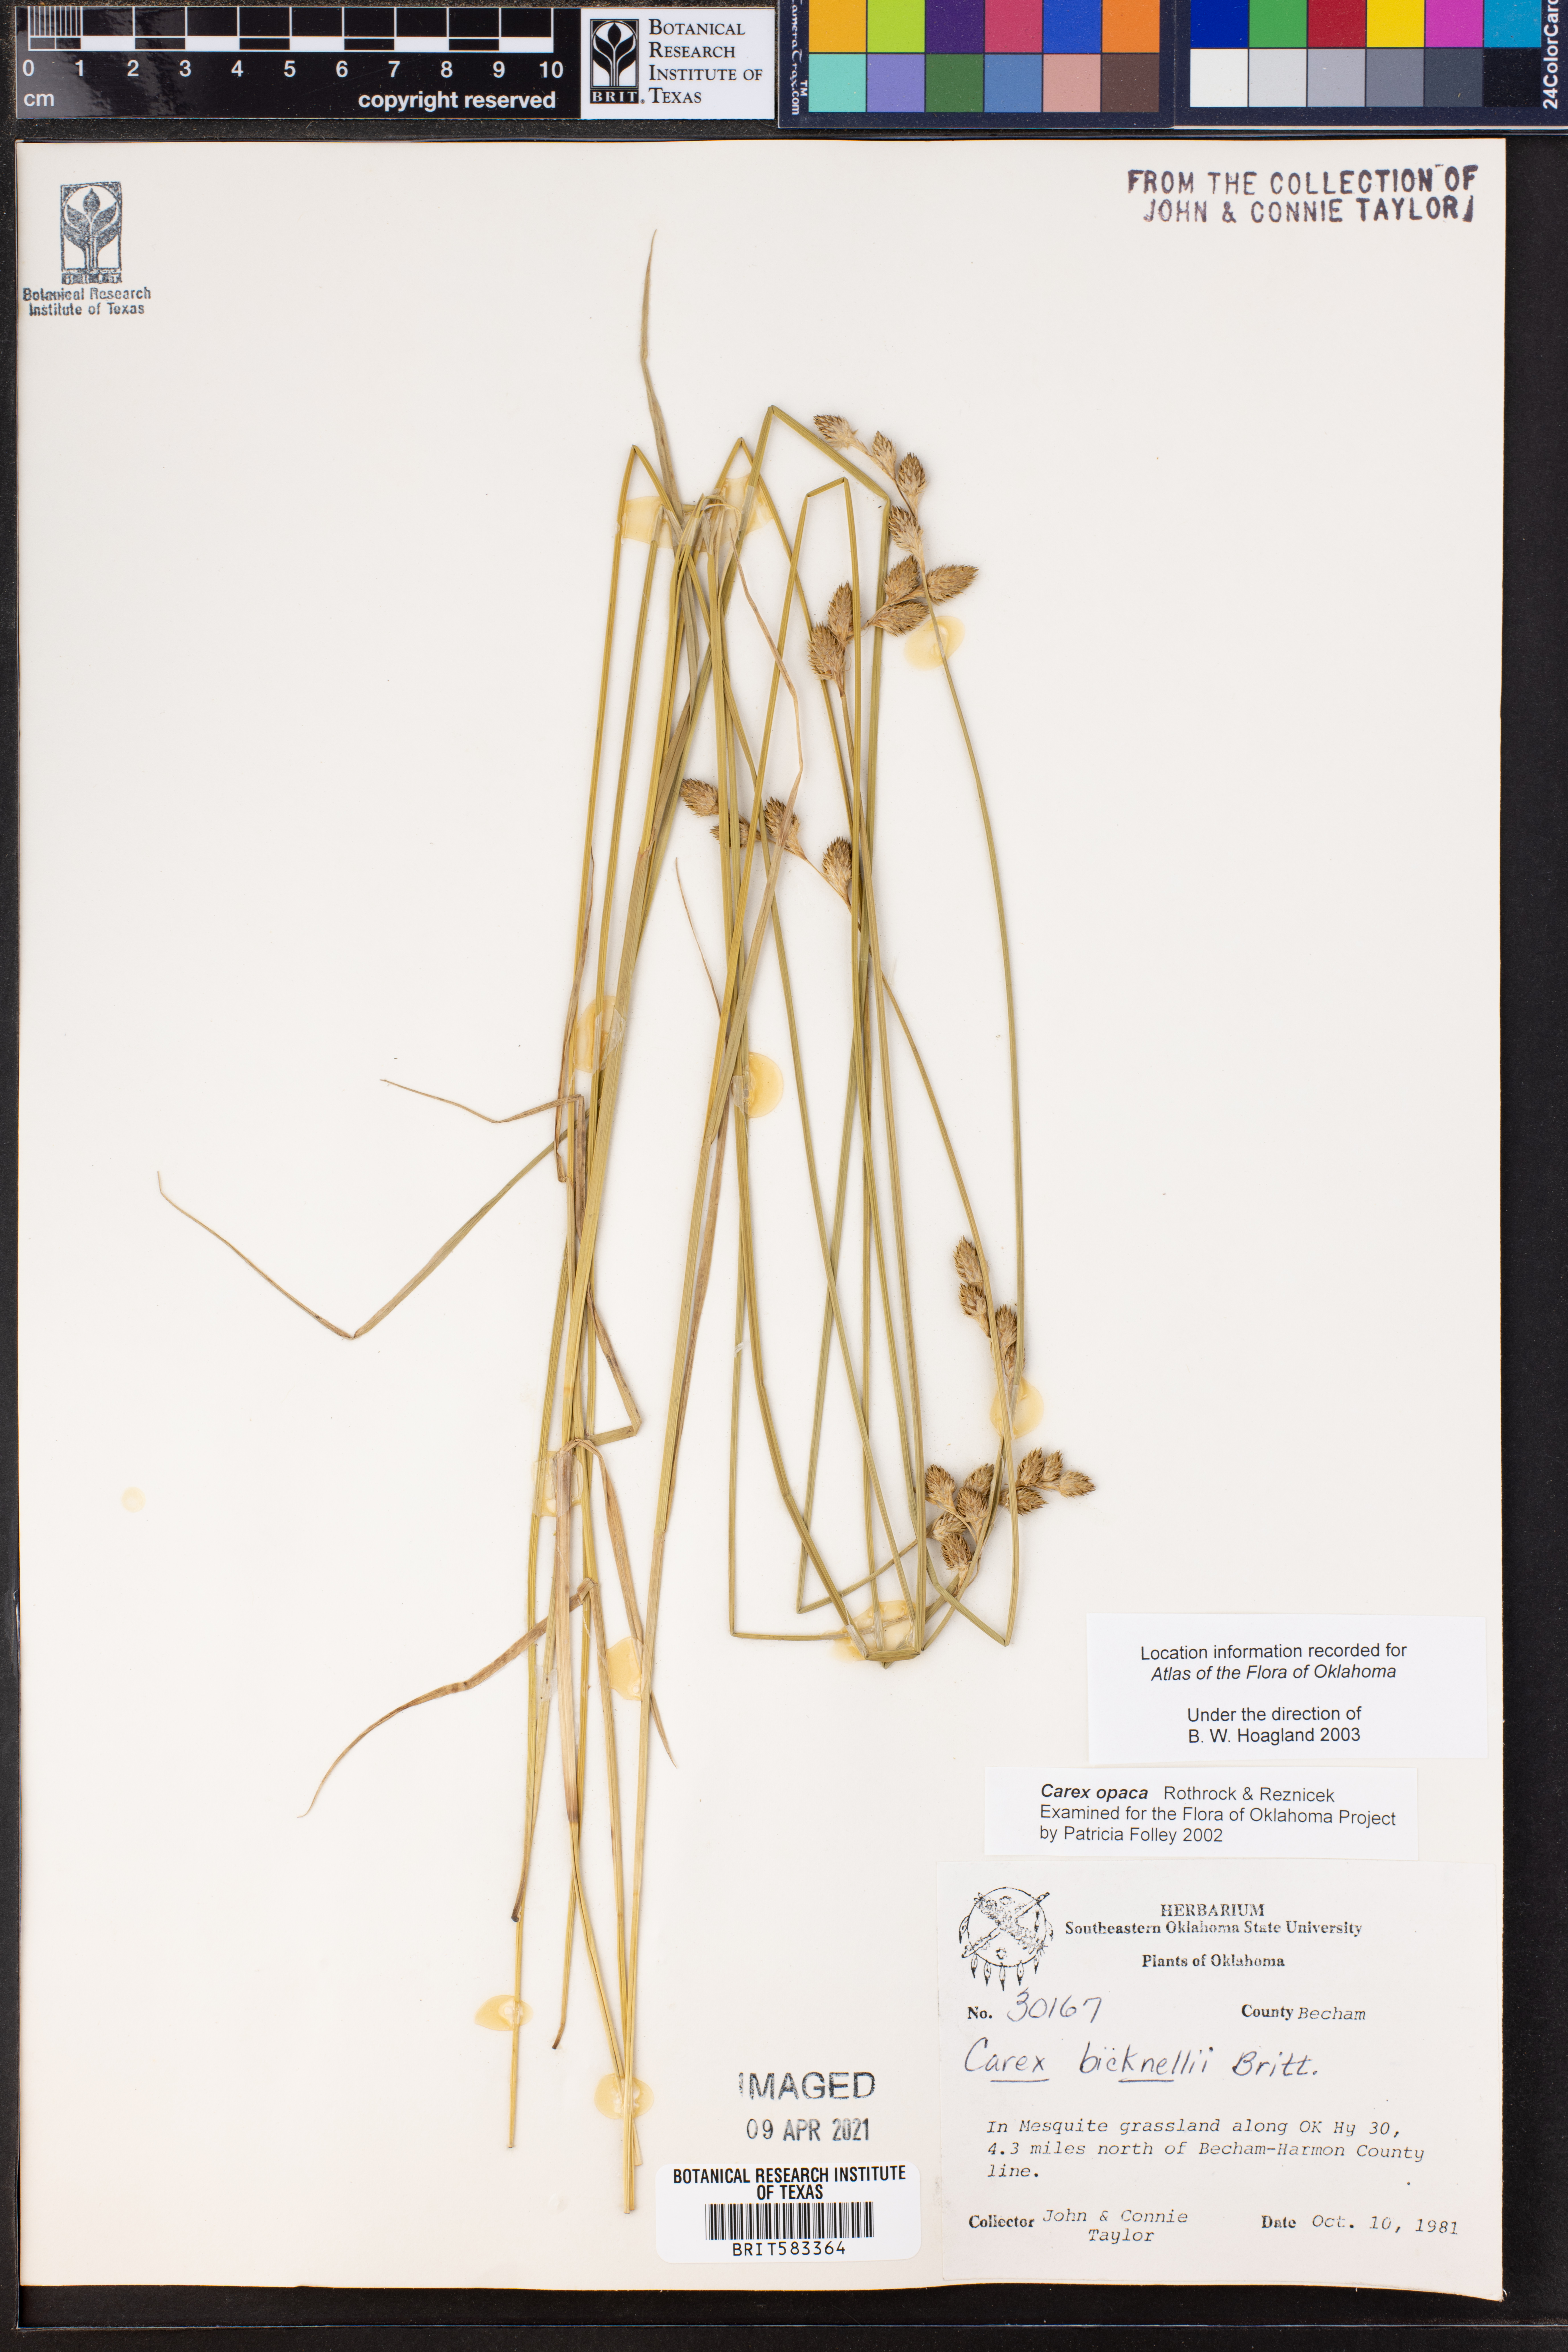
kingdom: Plantae
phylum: Tracheophyta
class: Liliopsida
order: Poales
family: Cyperaceae
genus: Carex
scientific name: Carex opaca
